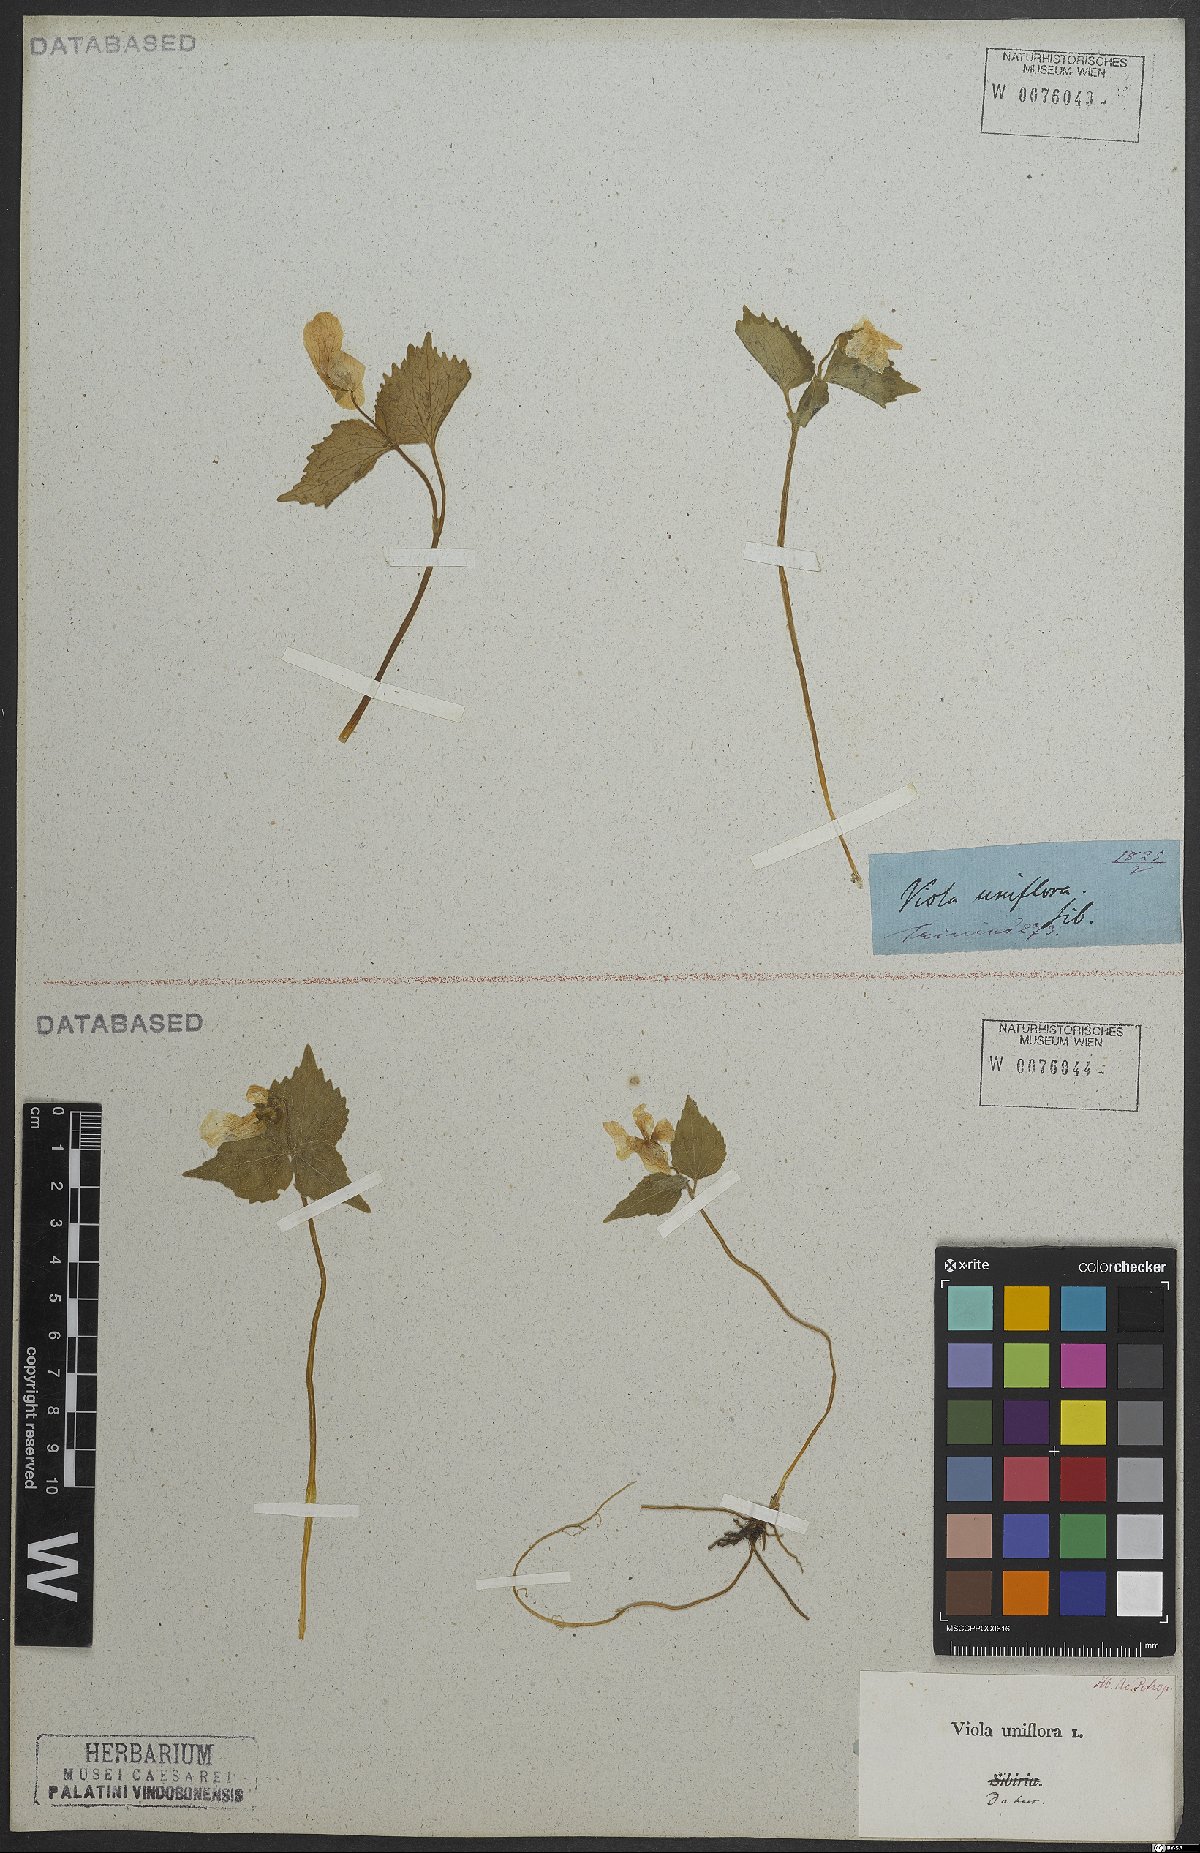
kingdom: Plantae
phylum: Tracheophyta
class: Magnoliopsida
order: Malpighiales
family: Violaceae
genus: Viola
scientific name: Viola uniflora
